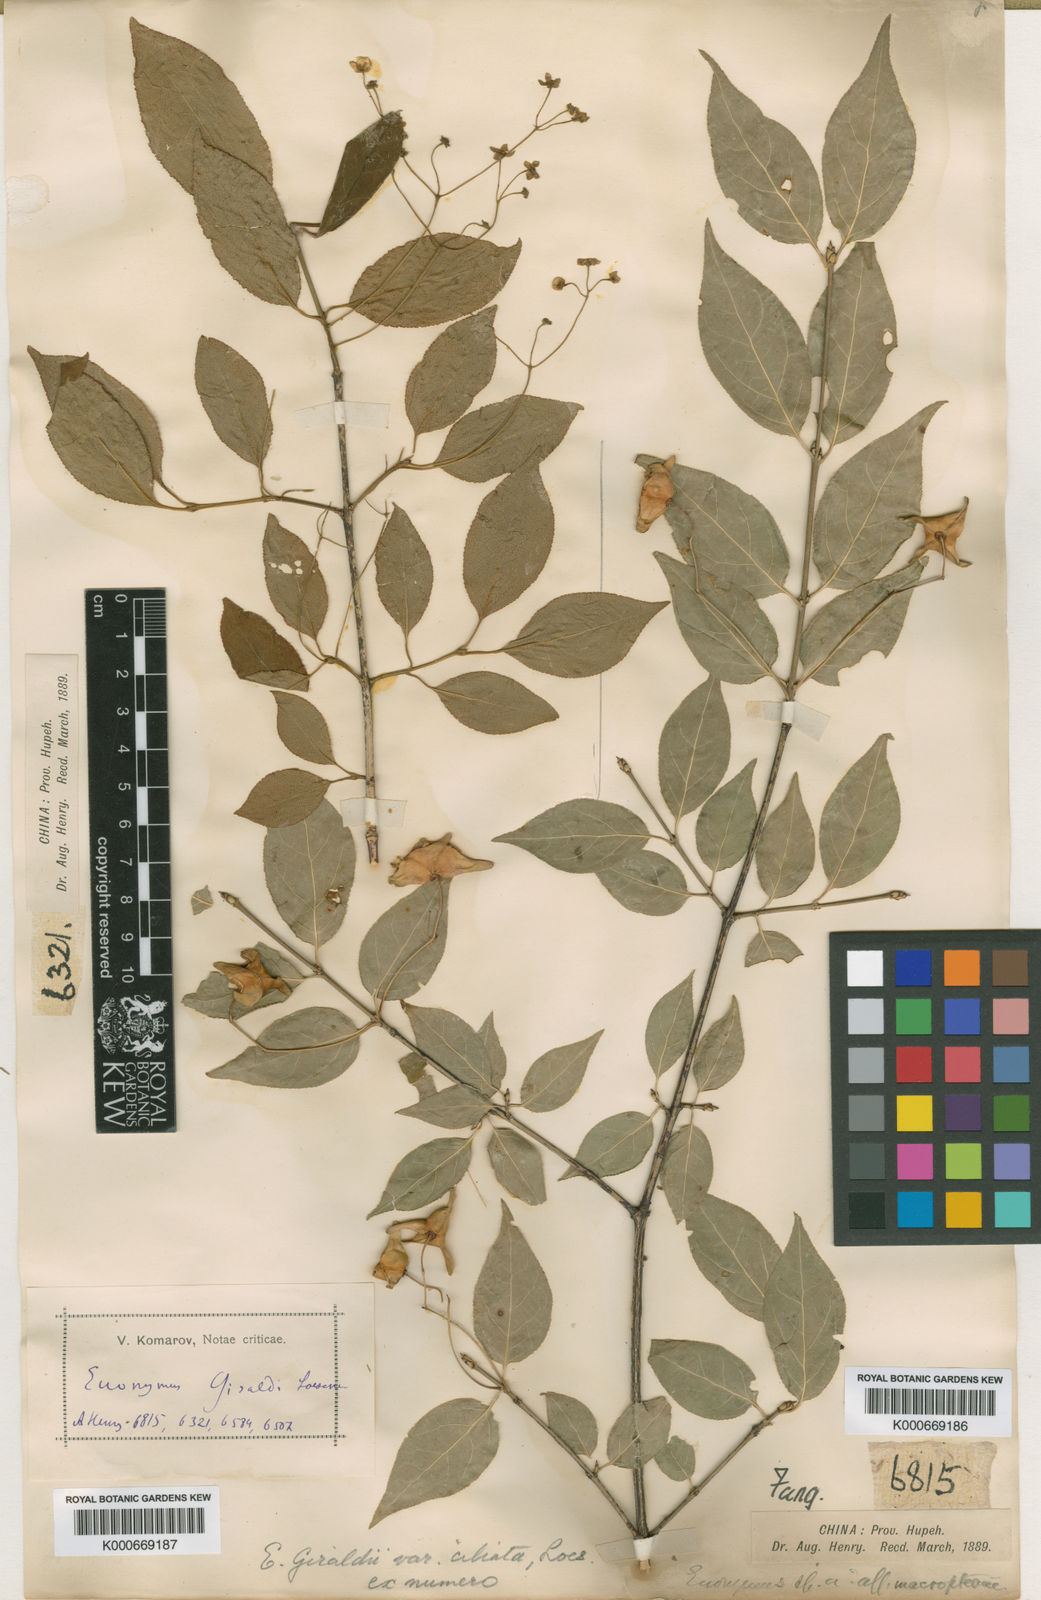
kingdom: Plantae
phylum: Tracheophyta
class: Magnoliopsida
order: Celastrales
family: Celastraceae
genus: Euonymus
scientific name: Euonymus giraldii
